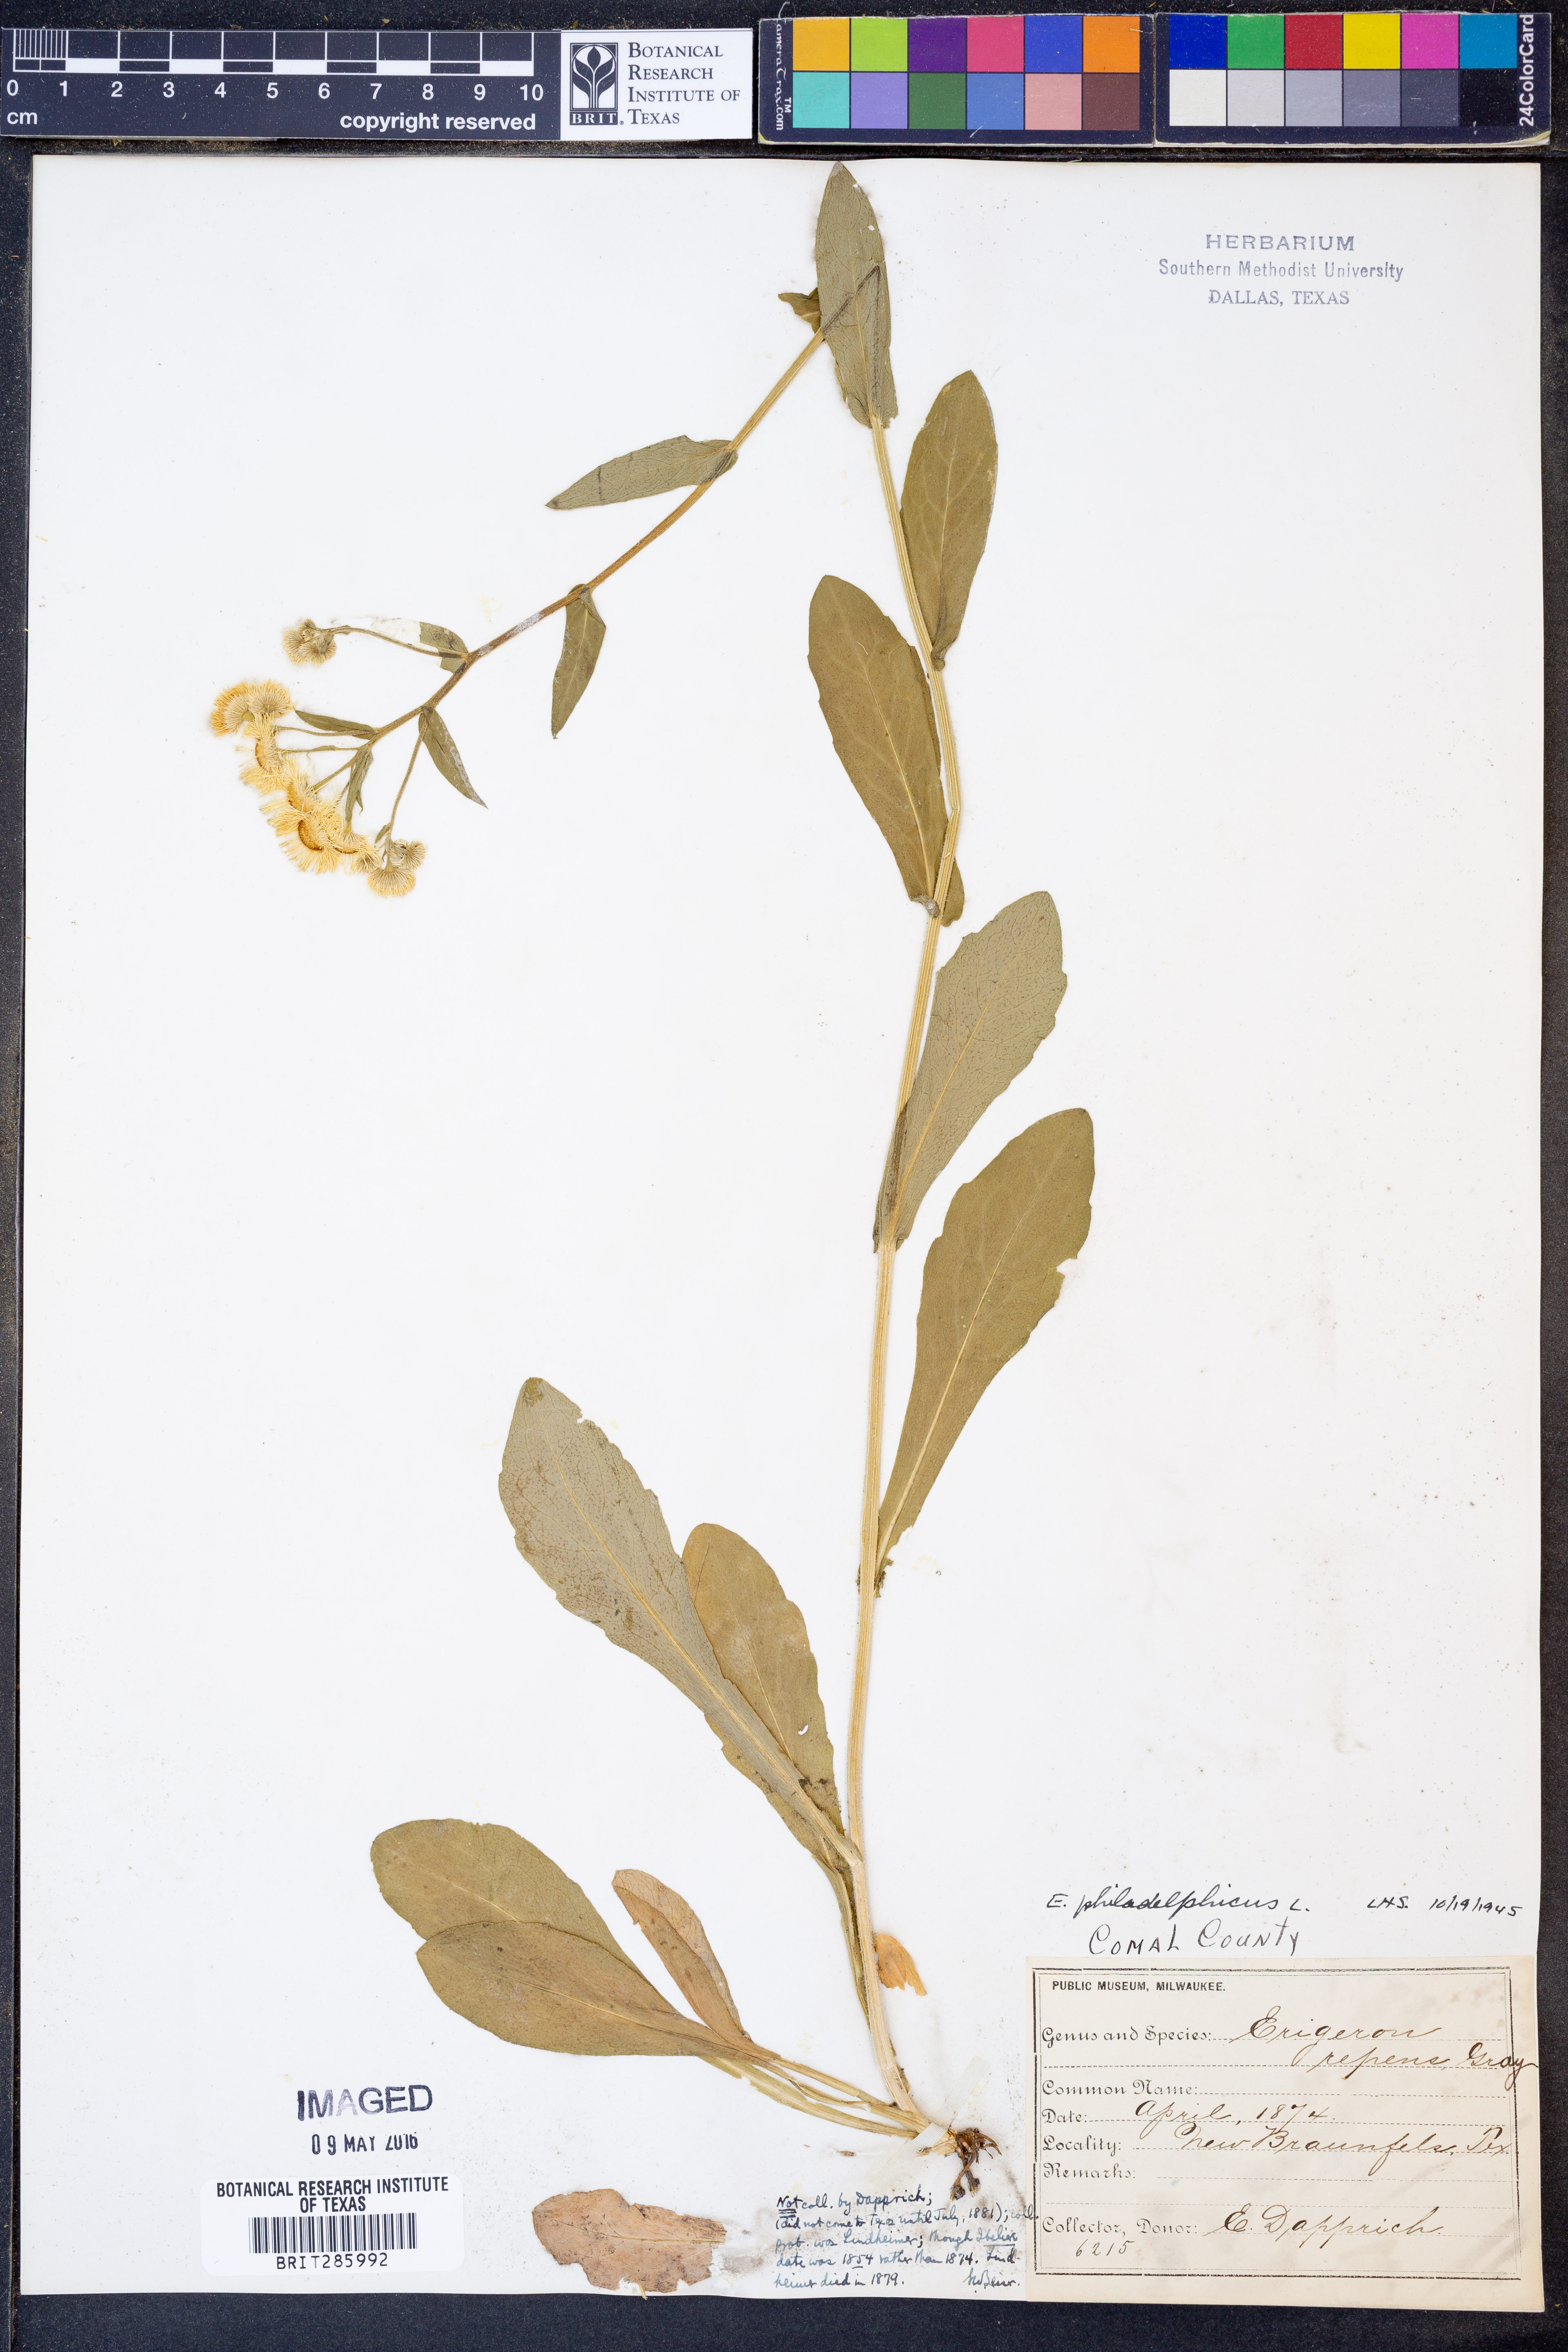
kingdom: Plantae
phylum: Tracheophyta
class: Magnoliopsida
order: Asterales
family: Asteraceae
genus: Erigeron
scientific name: Erigeron philadelphicus
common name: Robin's-plantain
